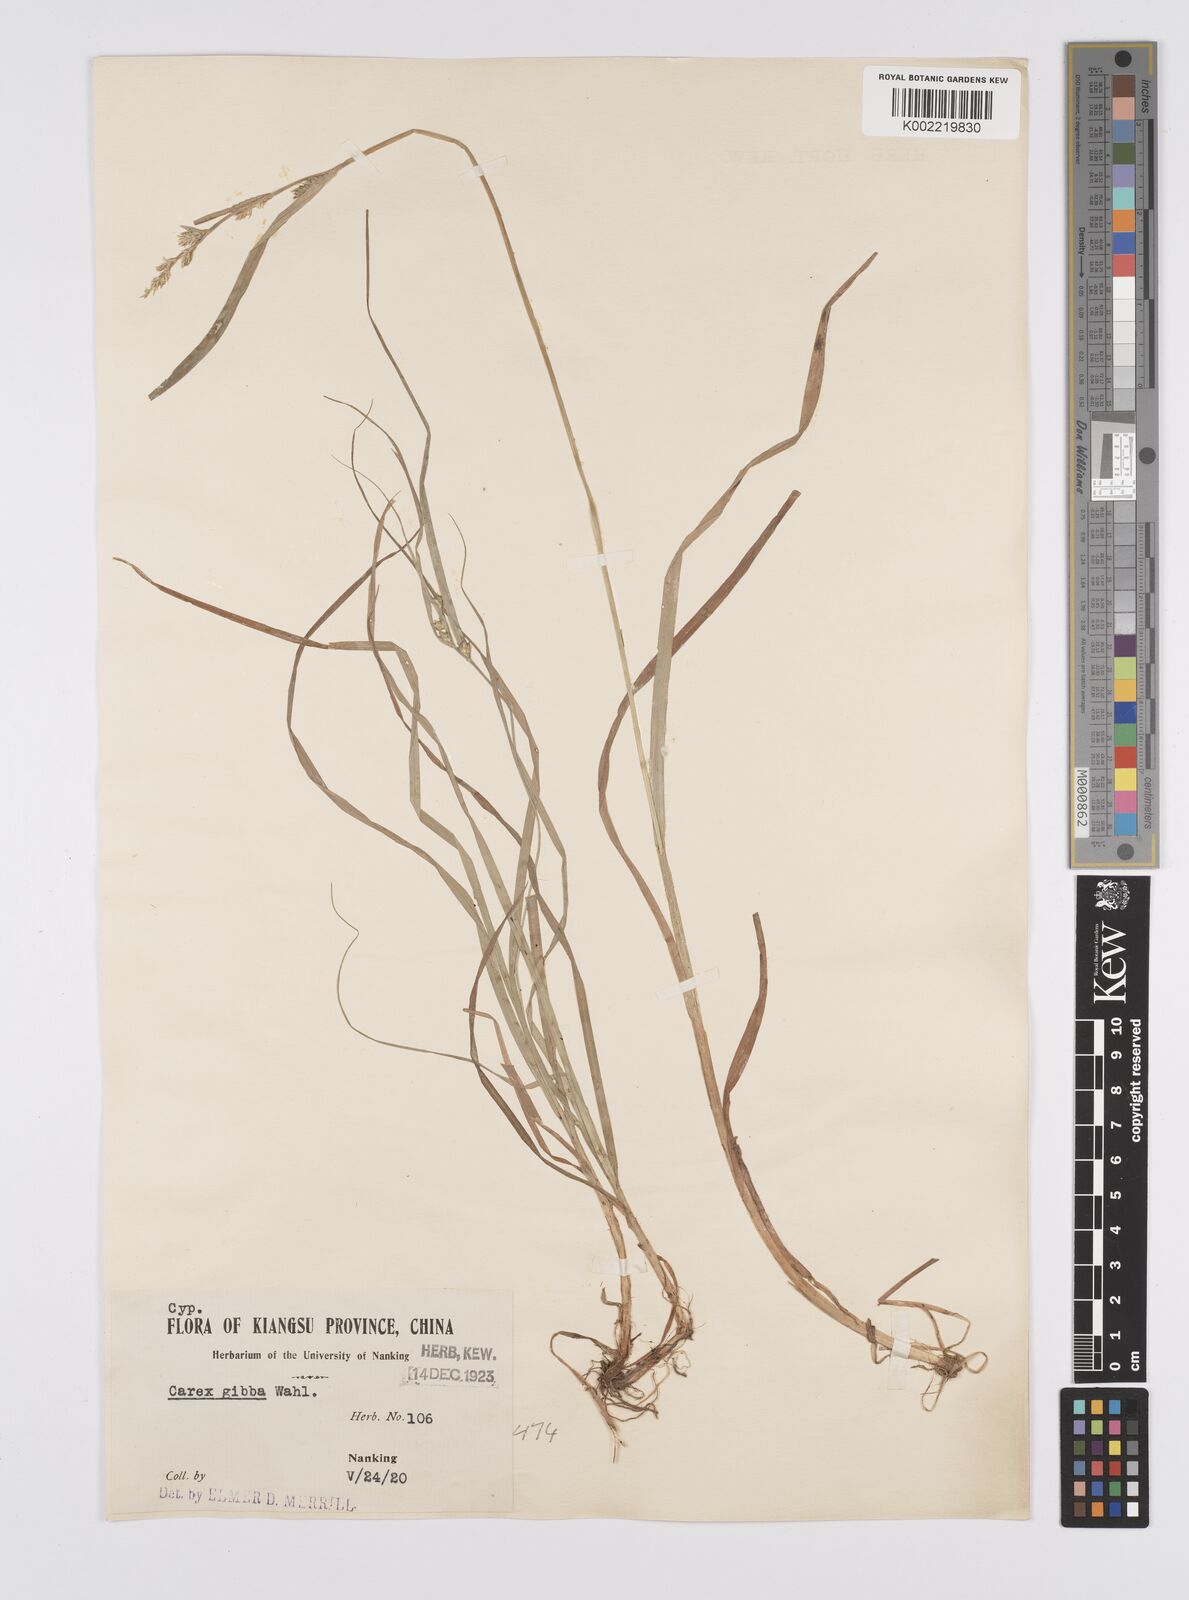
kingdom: Plantae
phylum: Tracheophyta
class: Liliopsida
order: Poales
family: Cyperaceae
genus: Carex
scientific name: Carex gibba
